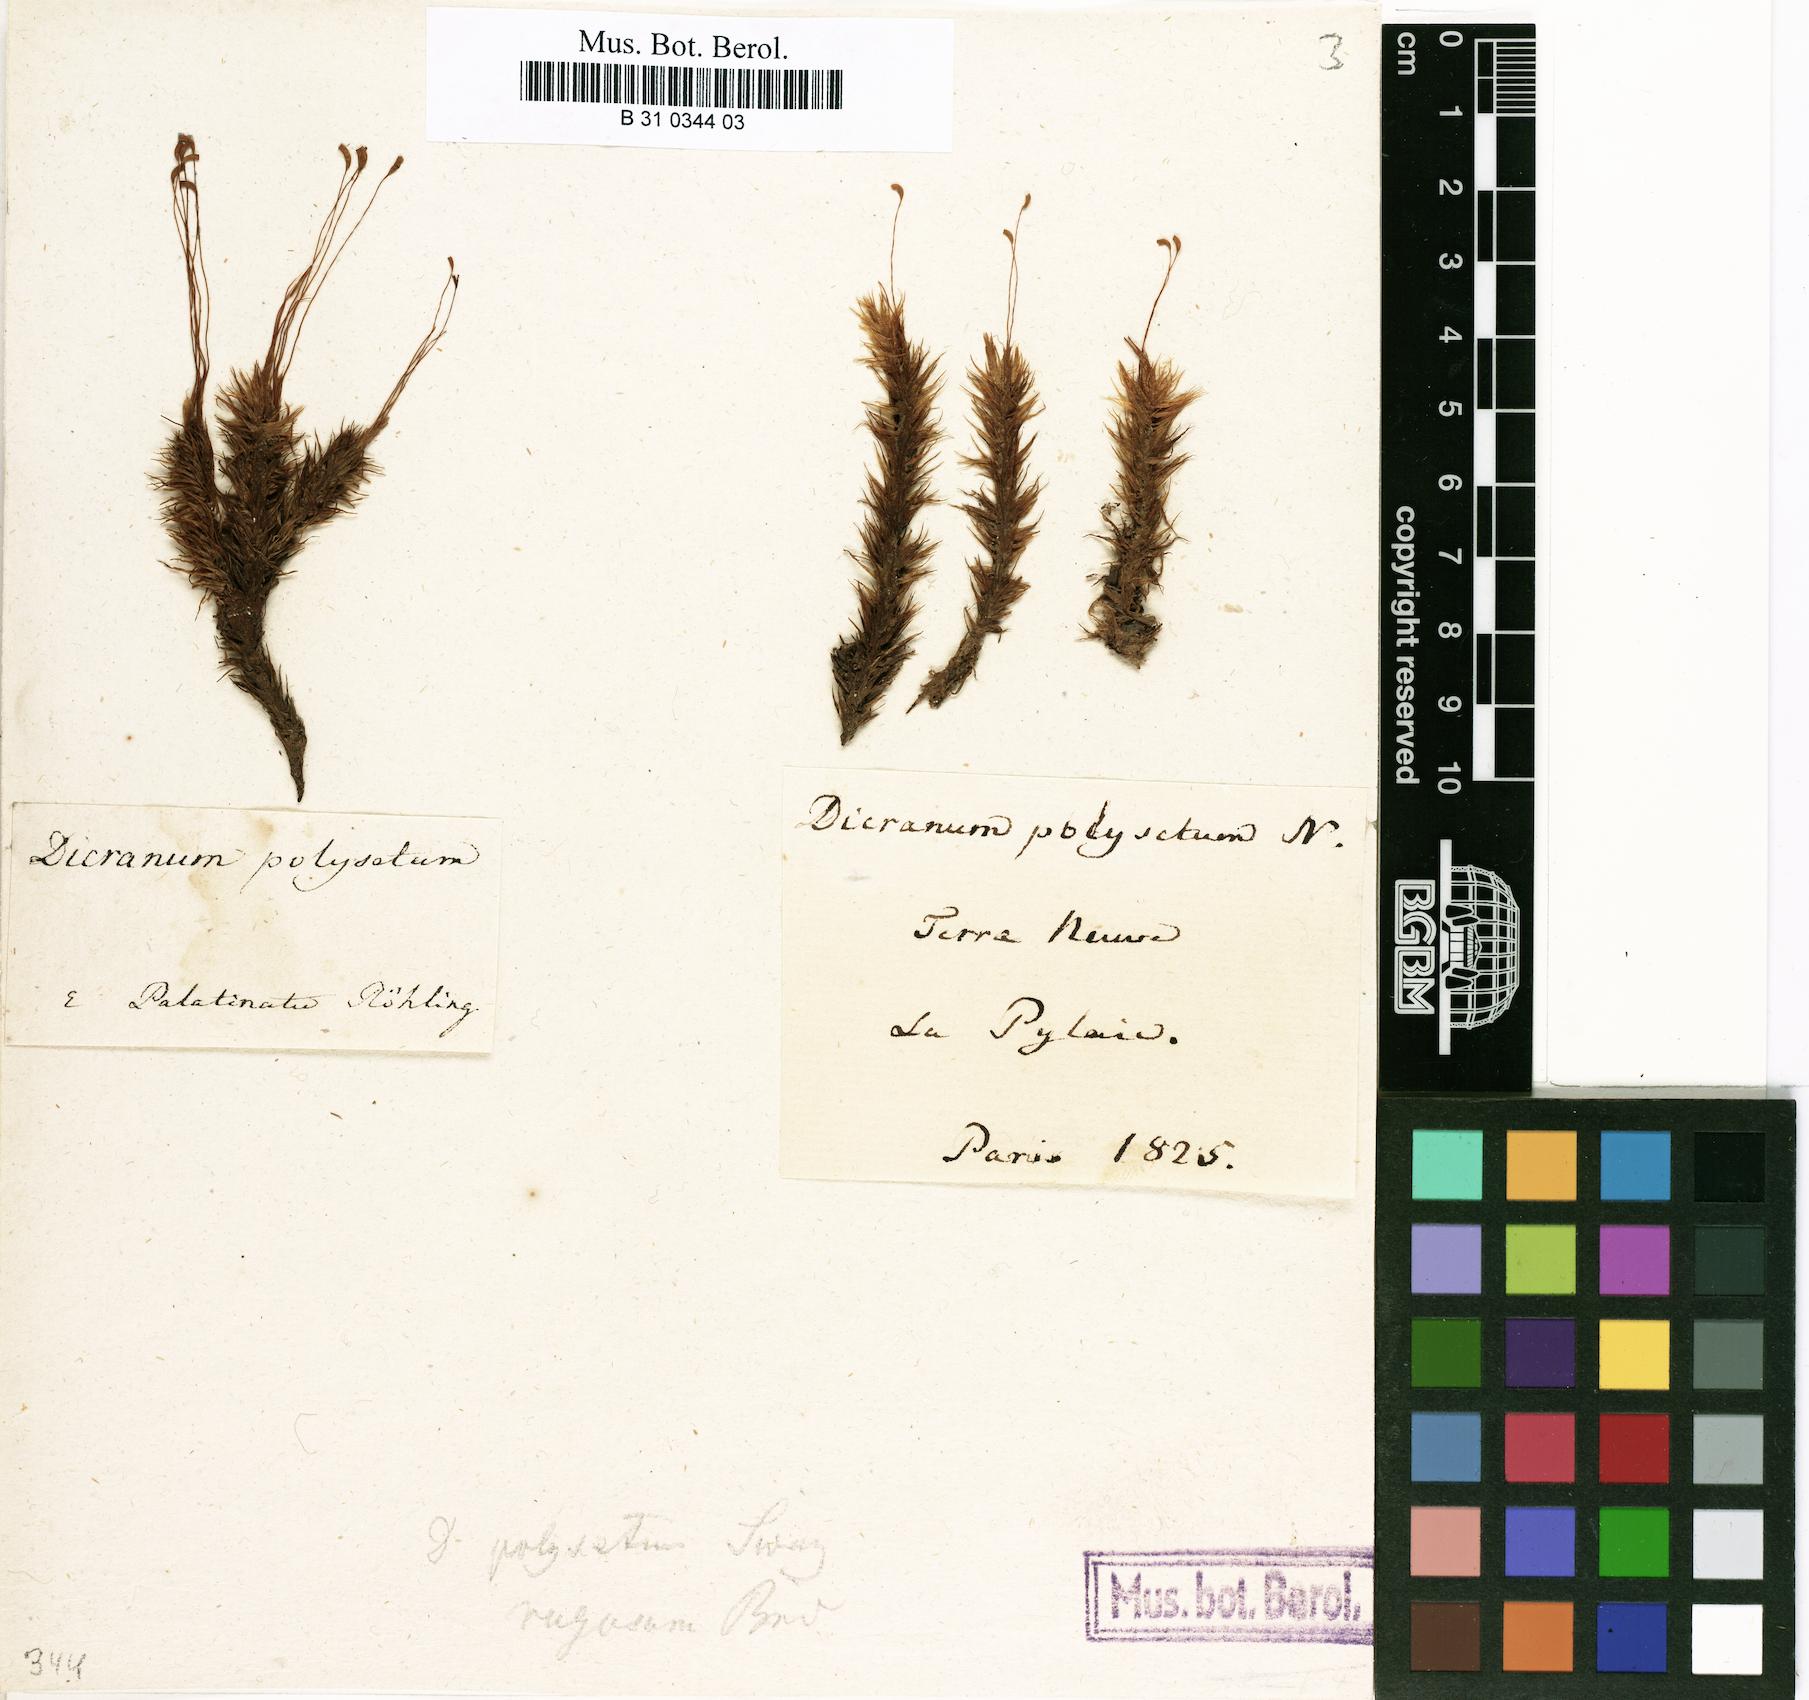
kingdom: Plantae
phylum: Bryophyta
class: Bryopsida
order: Dicranales
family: Dicranaceae
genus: Dicranum
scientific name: Dicranum polysetum
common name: Rugose fork-moss
